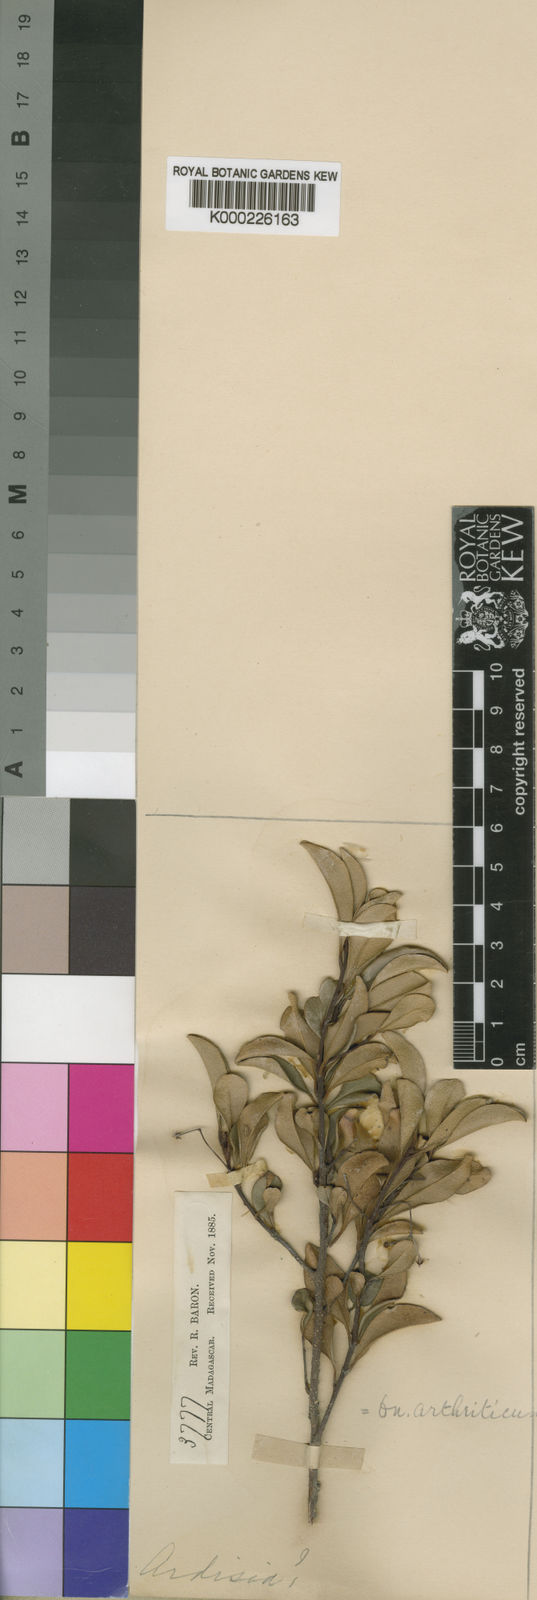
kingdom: Plantae
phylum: Tracheophyta
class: Magnoliopsida
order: Ericales
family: Primulaceae
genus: Oncostemum
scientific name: Oncostemum arthriticum
